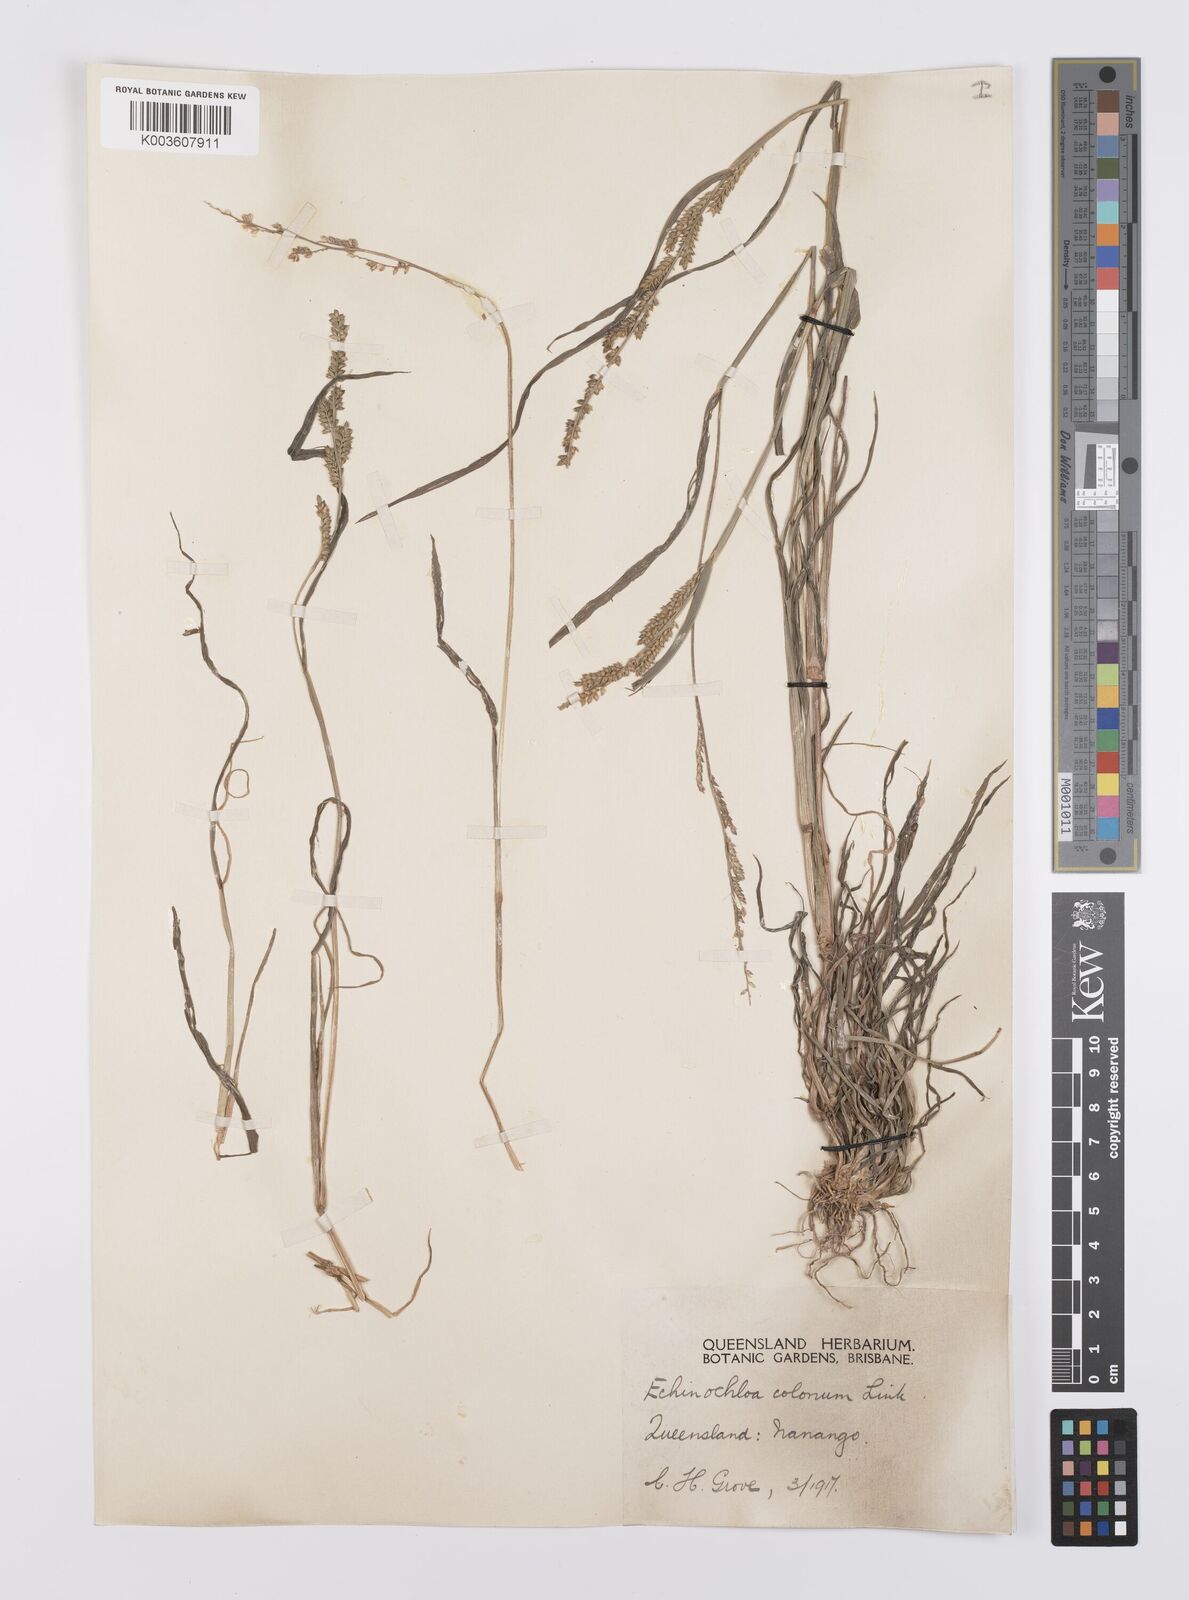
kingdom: Plantae
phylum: Tracheophyta
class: Liliopsida
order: Poales
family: Poaceae
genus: Echinochloa
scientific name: Echinochloa colonum
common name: Jungle rice
